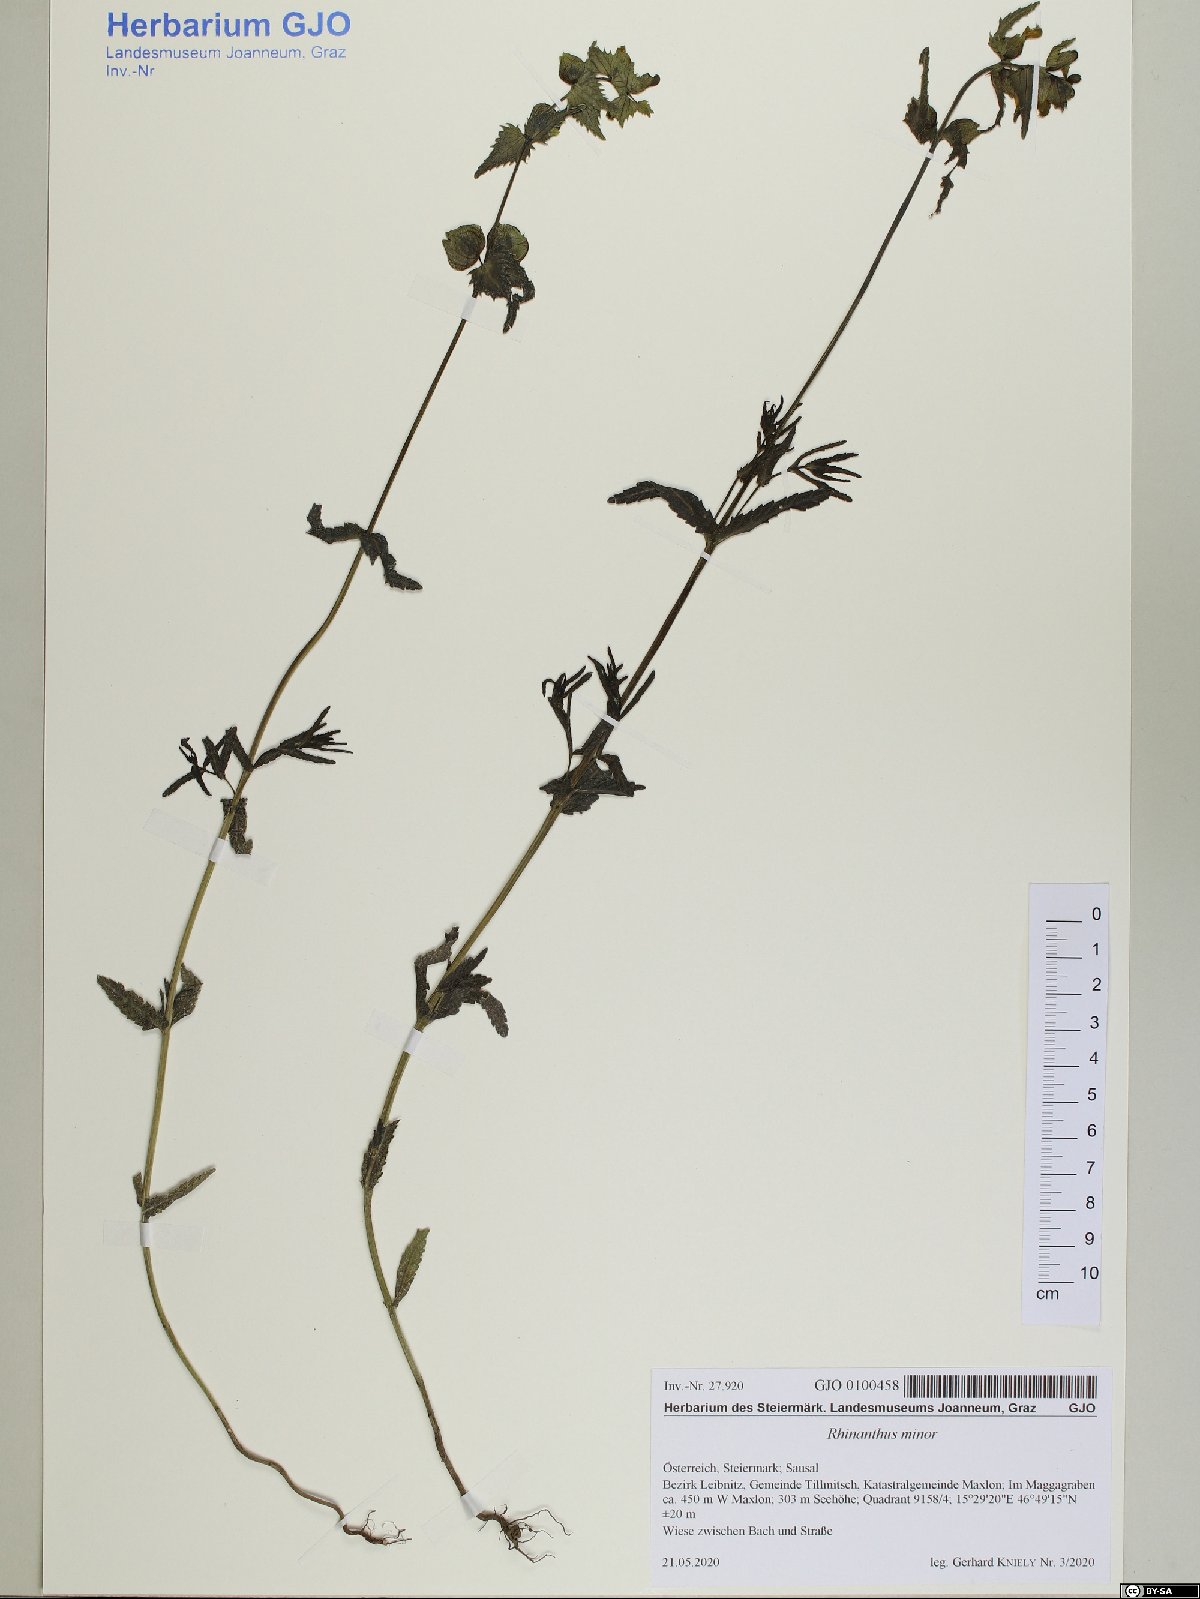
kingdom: Plantae
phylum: Tracheophyta
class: Magnoliopsida
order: Lamiales
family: Orobanchaceae
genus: Rhinanthus
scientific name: Rhinanthus minor
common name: Yellow-rattle
